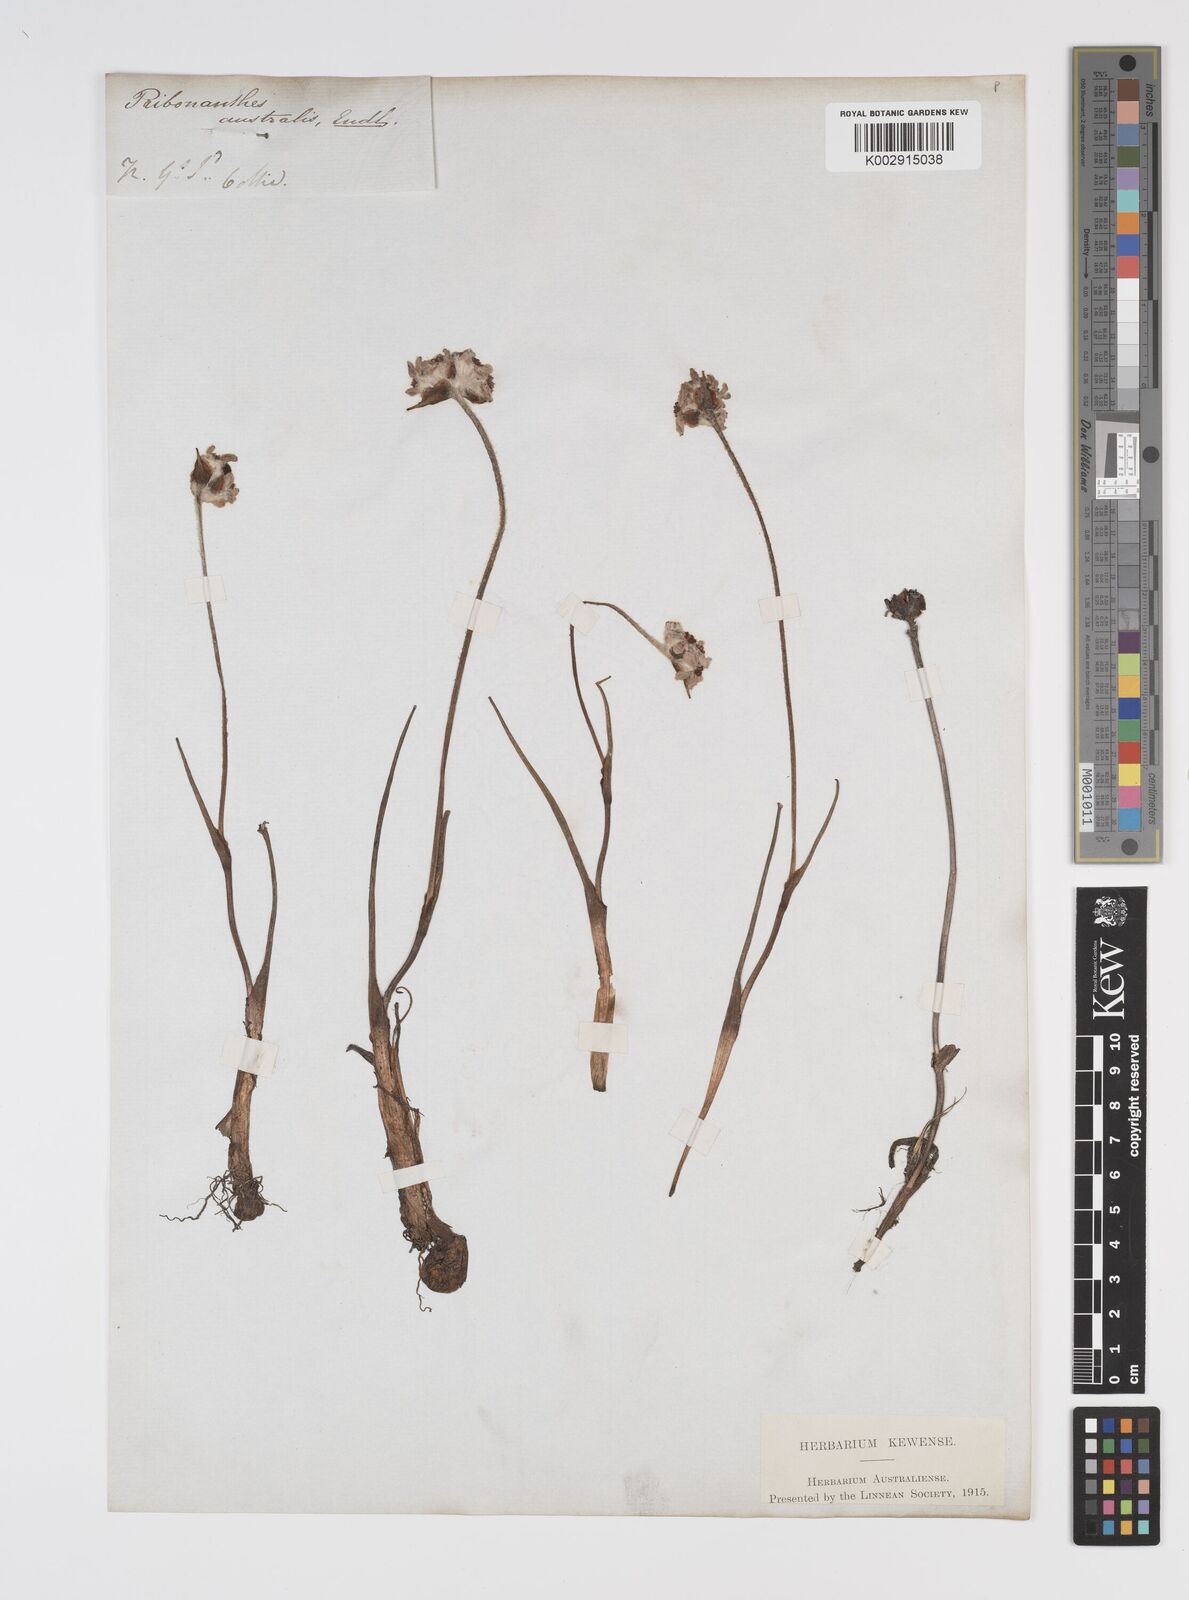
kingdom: Plantae
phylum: Tracheophyta
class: Liliopsida
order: Commelinales
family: Haemodoraceae
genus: Tribonanthes
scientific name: Tribonanthes australis
